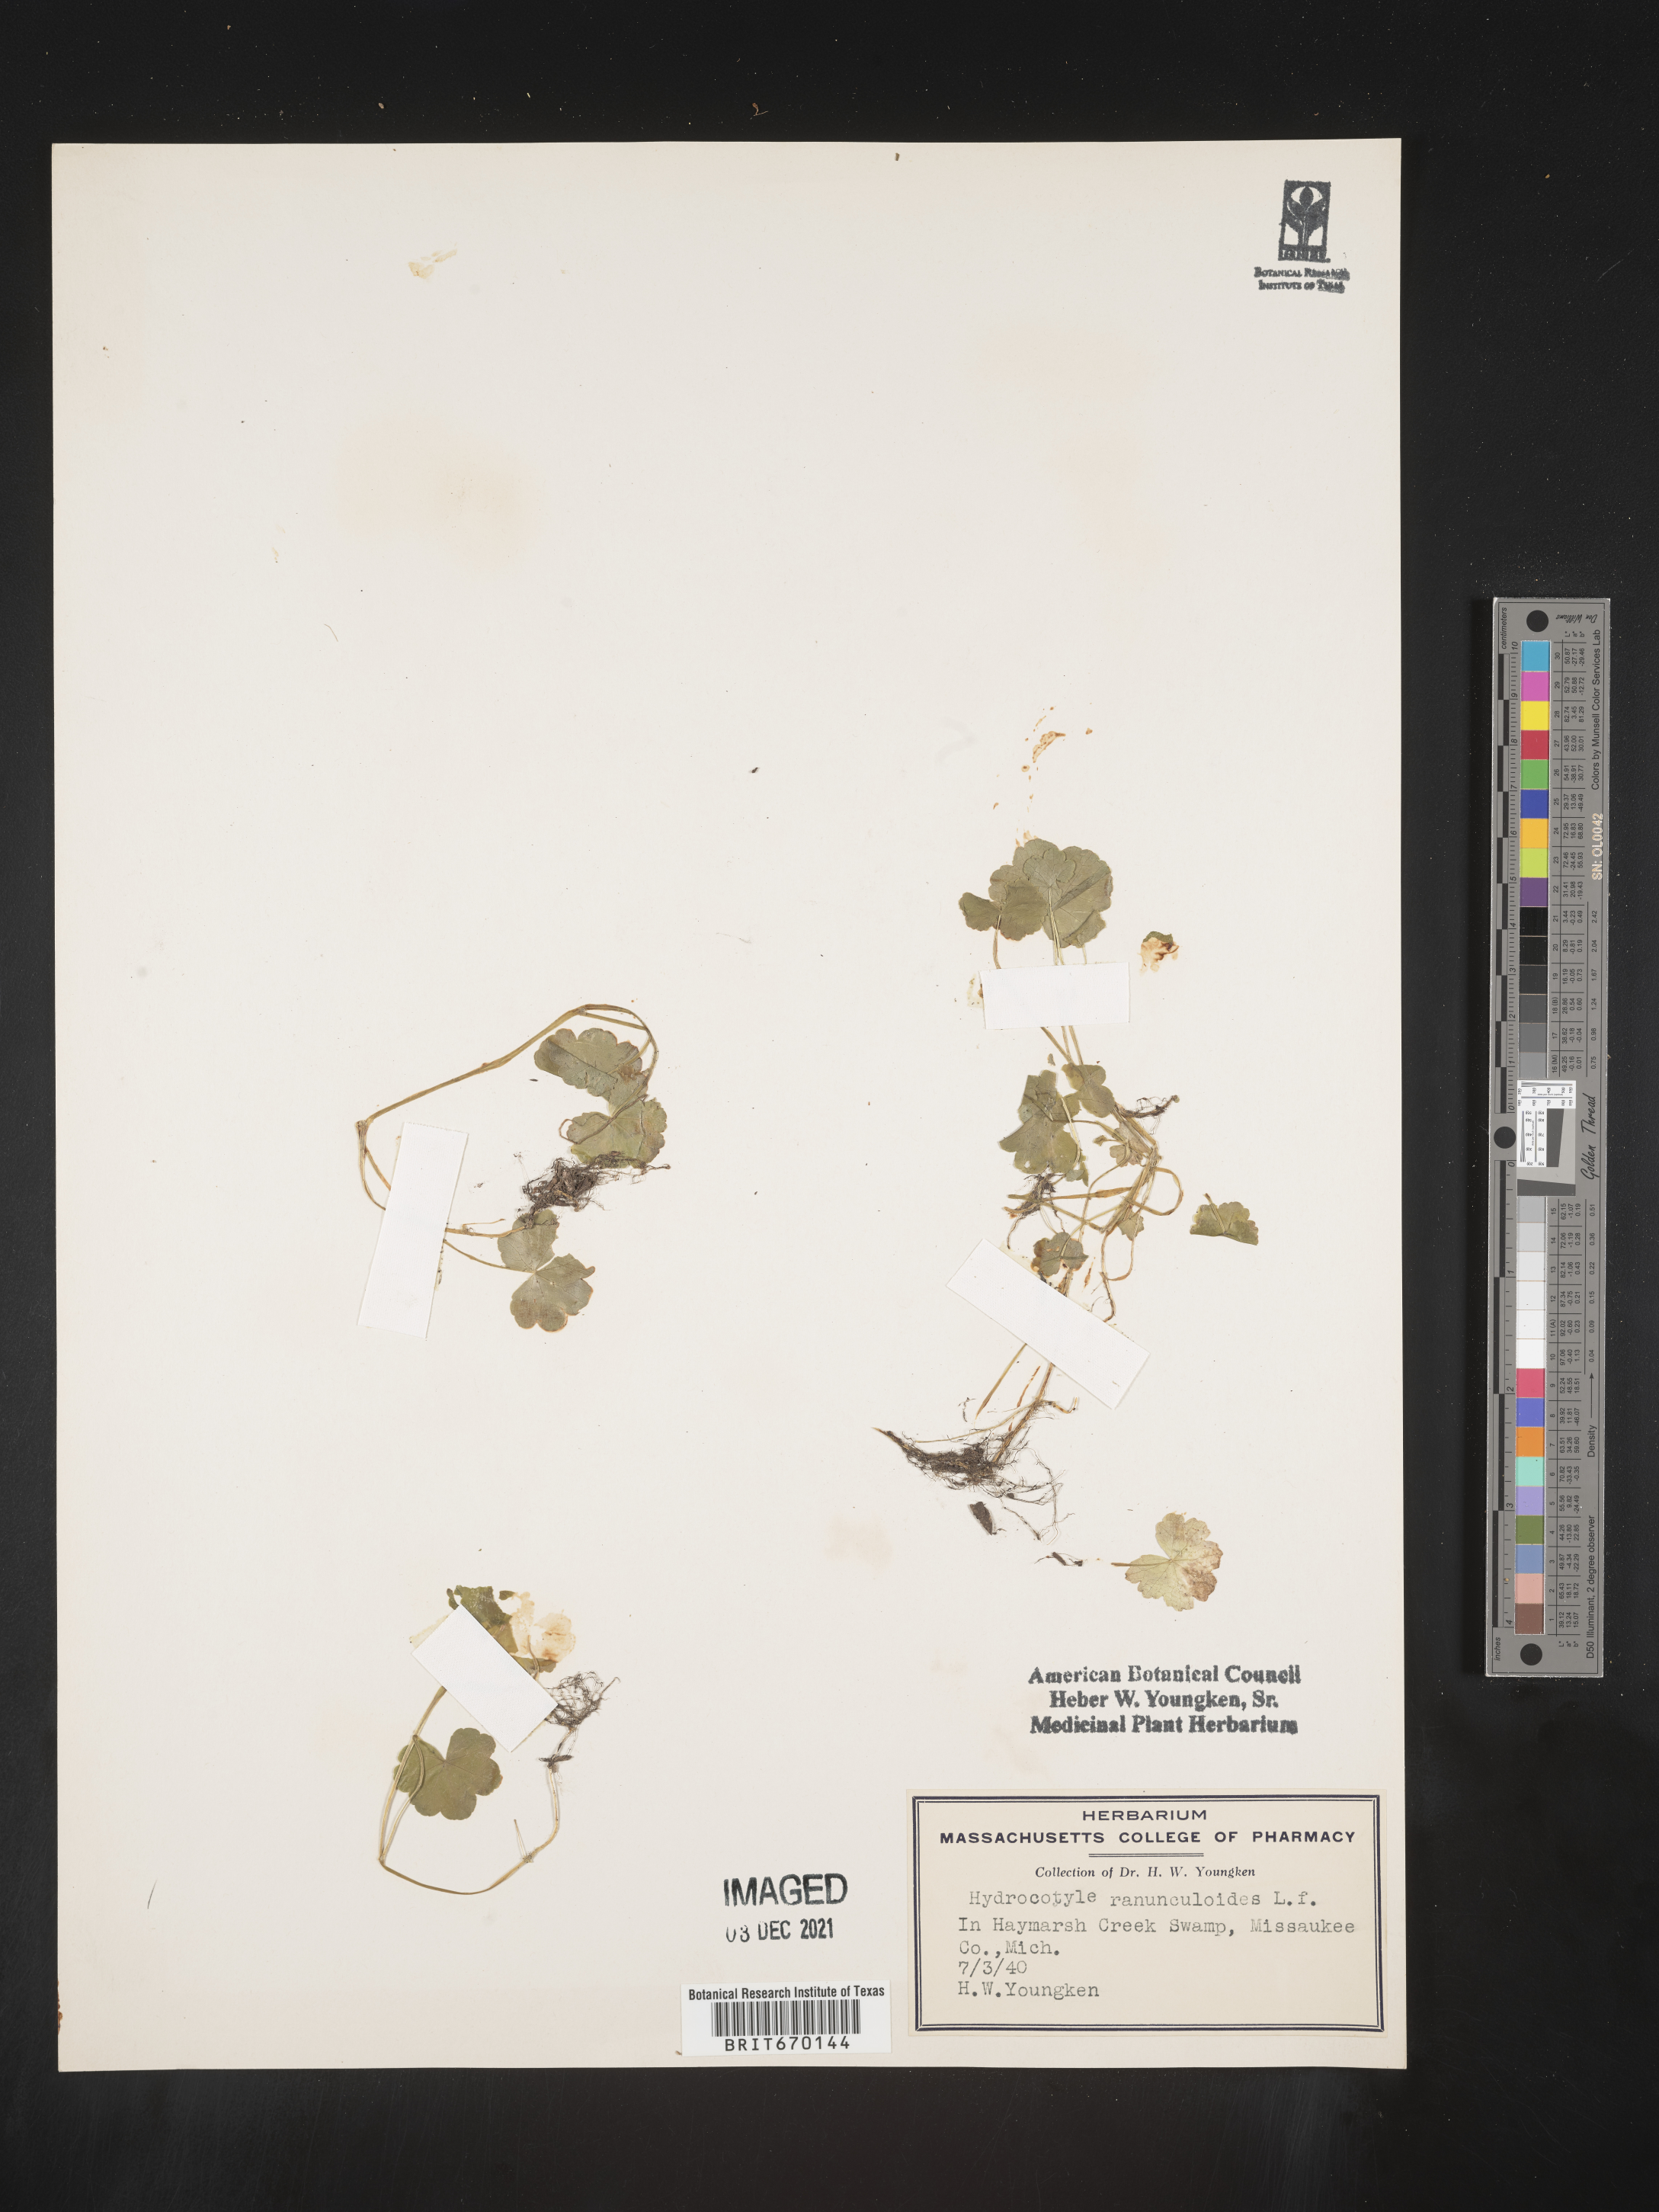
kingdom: Plantae
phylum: Tracheophyta
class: Magnoliopsida
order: Apiales
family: Araliaceae
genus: Hydrocotyle
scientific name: Hydrocotyle ranunculoides
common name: Floating pennywort
